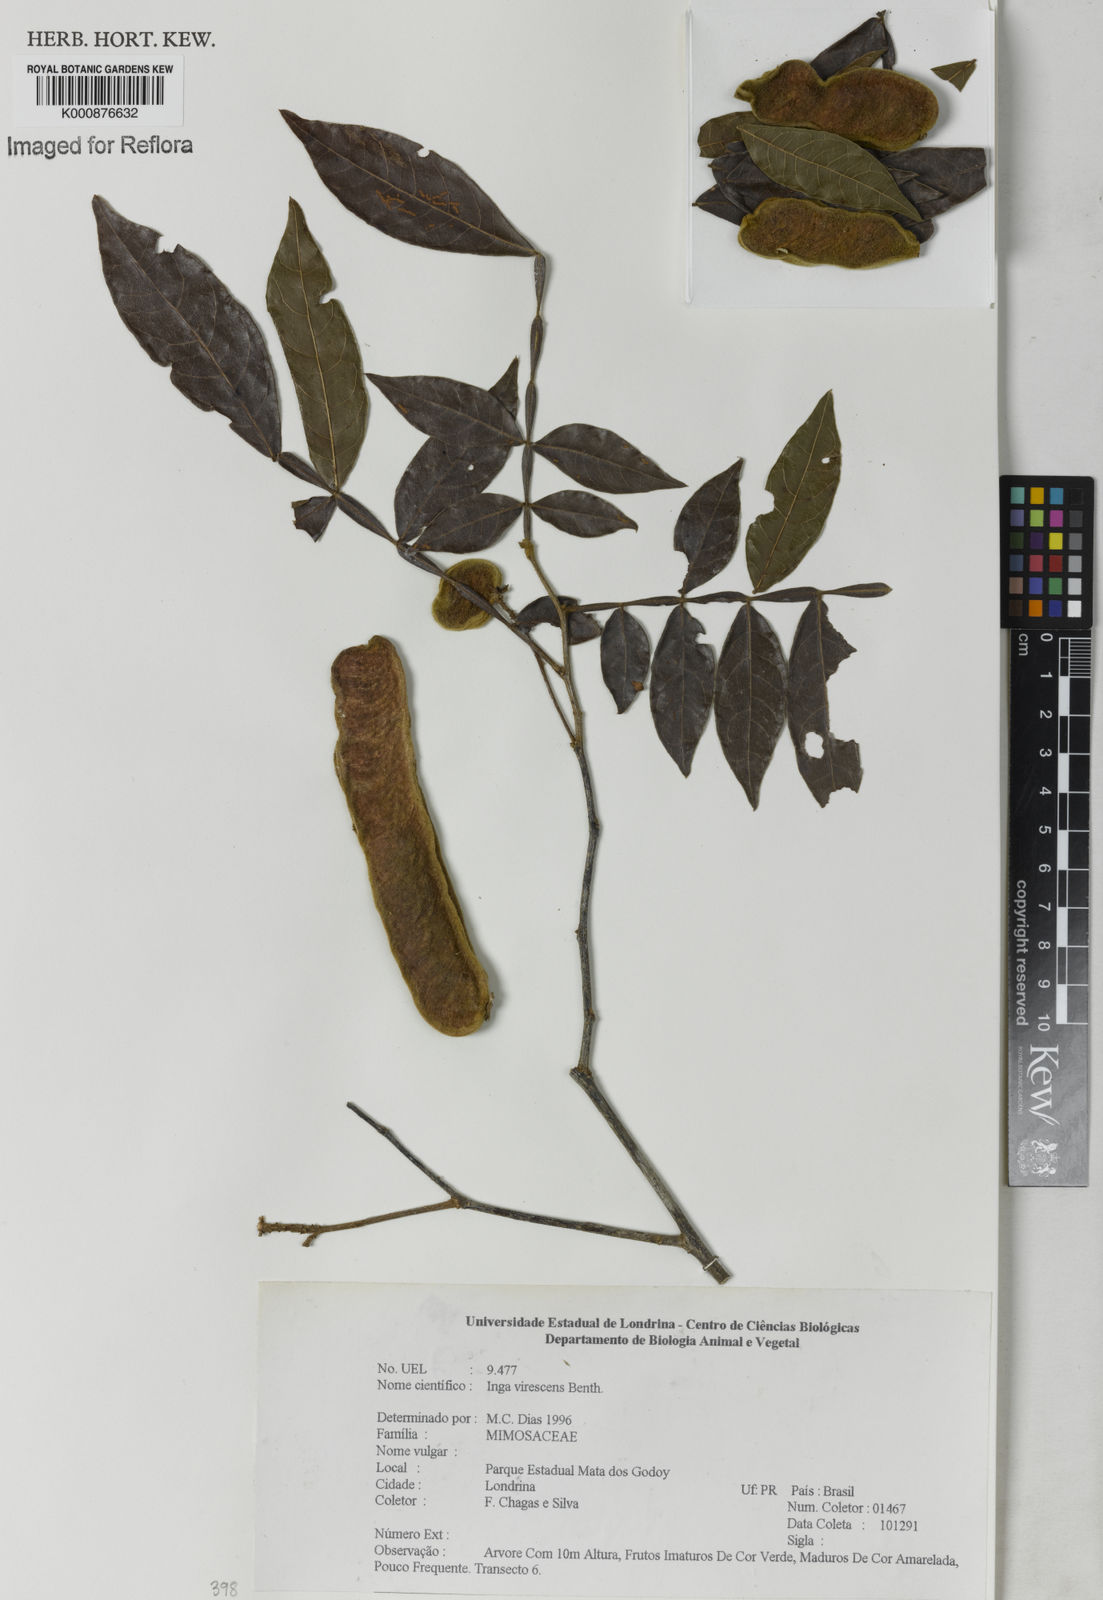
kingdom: Plantae
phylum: Tracheophyta
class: Magnoliopsida
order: Fabales
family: Fabaceae
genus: Inga
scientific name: Inga virescens
